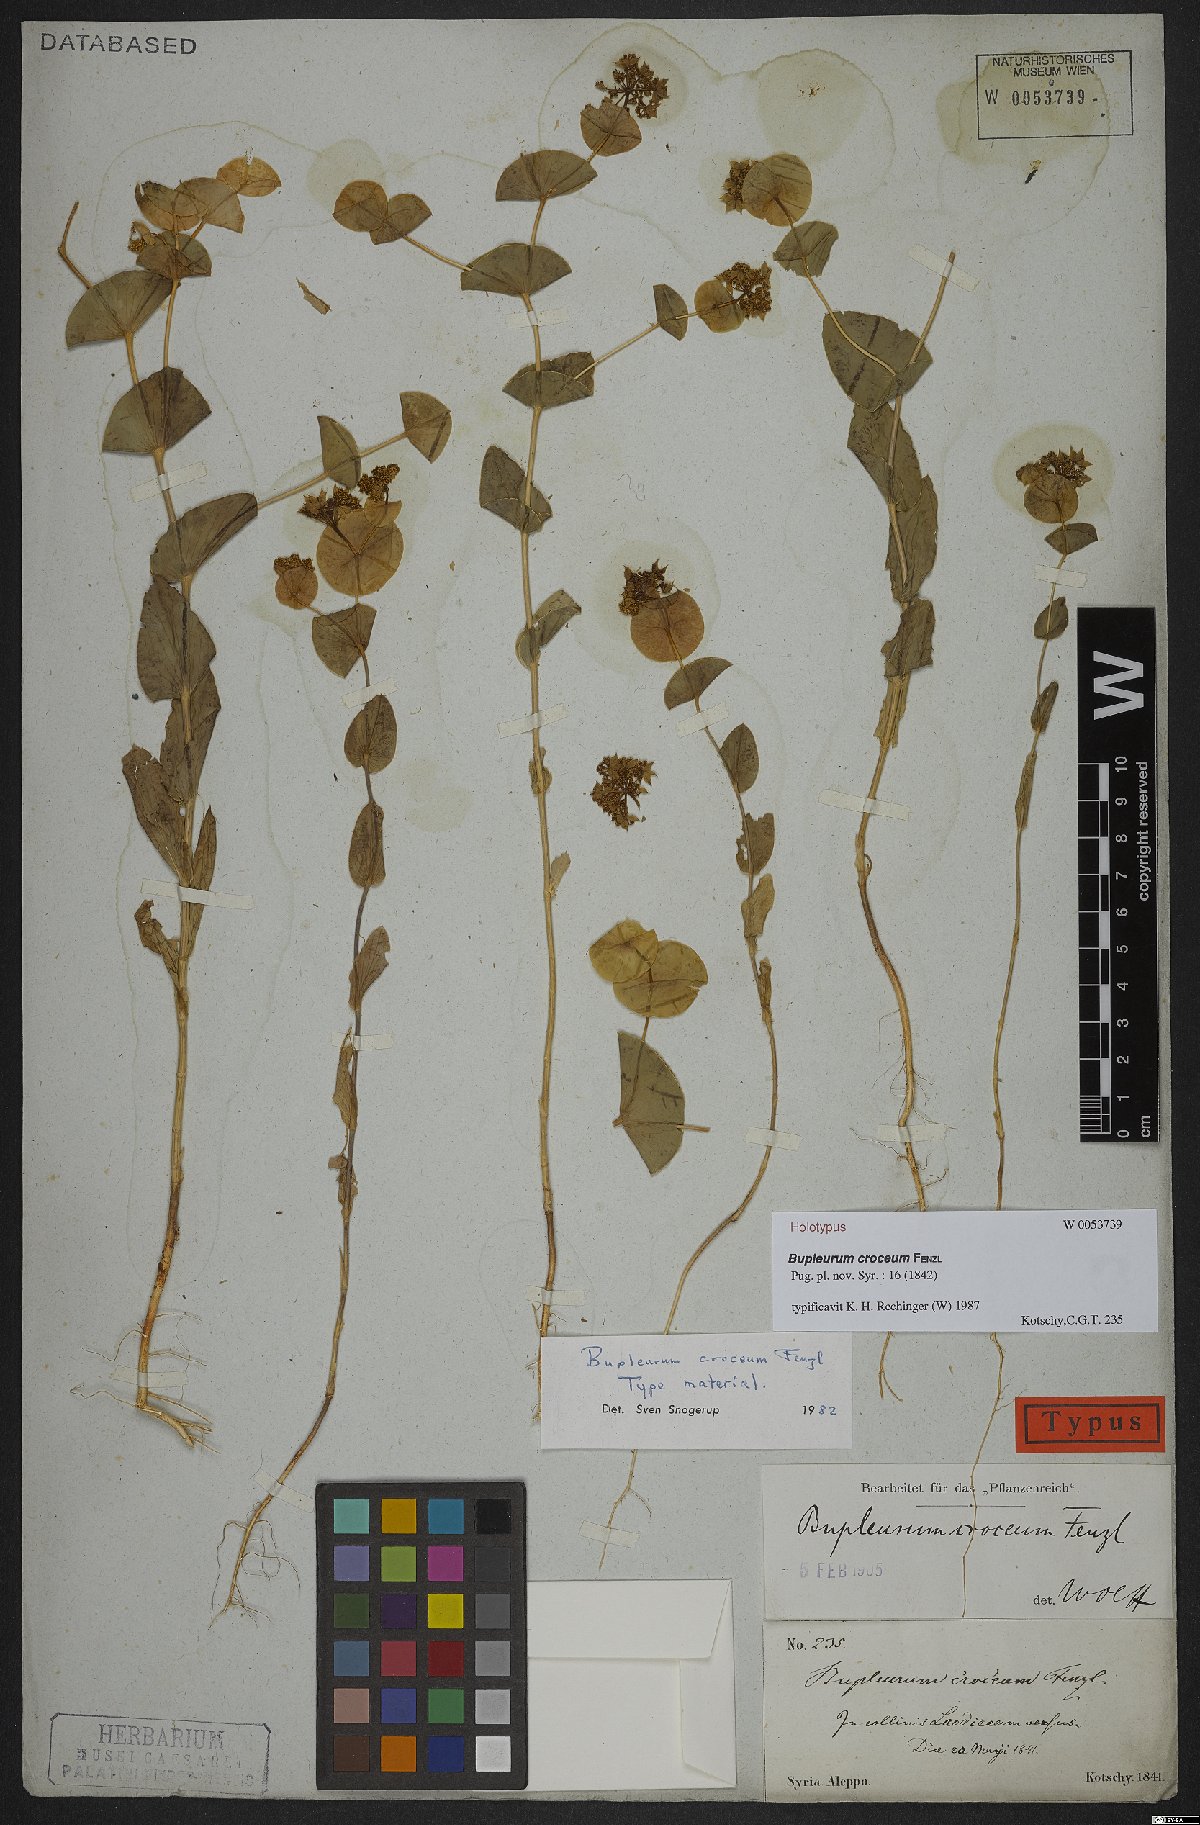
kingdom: Plantae
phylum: Tracheophyta
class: Magnoliopsida
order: Apiales
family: Apiaceae
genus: Bupleurum
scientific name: Bupleurum croceum
